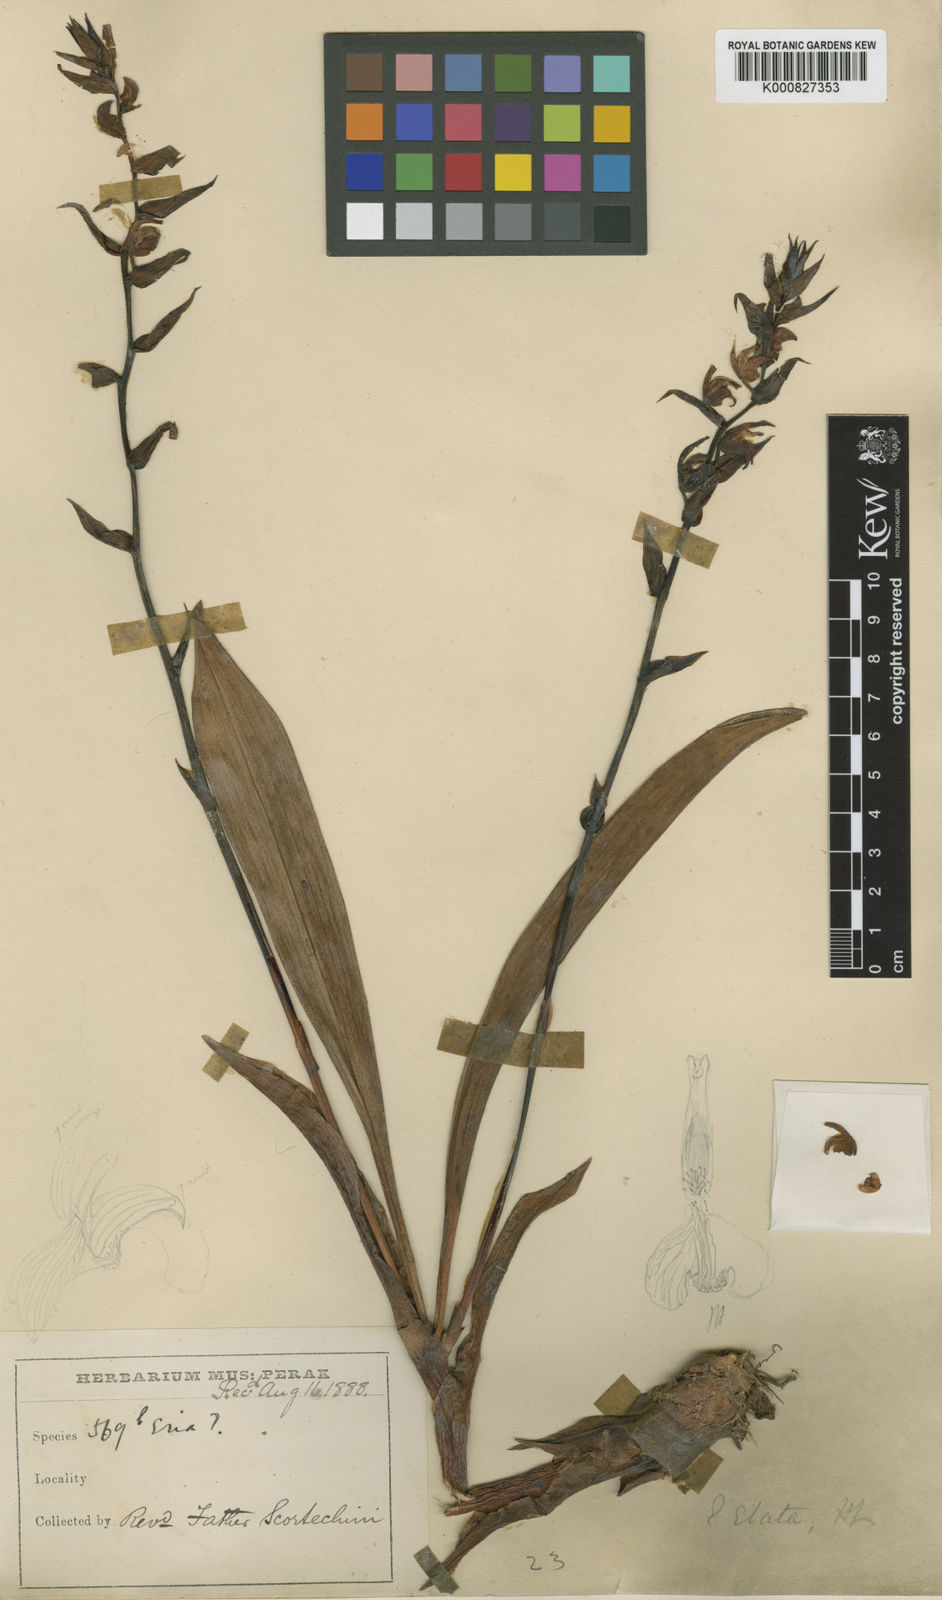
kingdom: Plantae
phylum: Tracheophyta
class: Liliopsida
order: Asparagales
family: Orchidaceae
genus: Pinalia
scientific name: Pinalia elata
